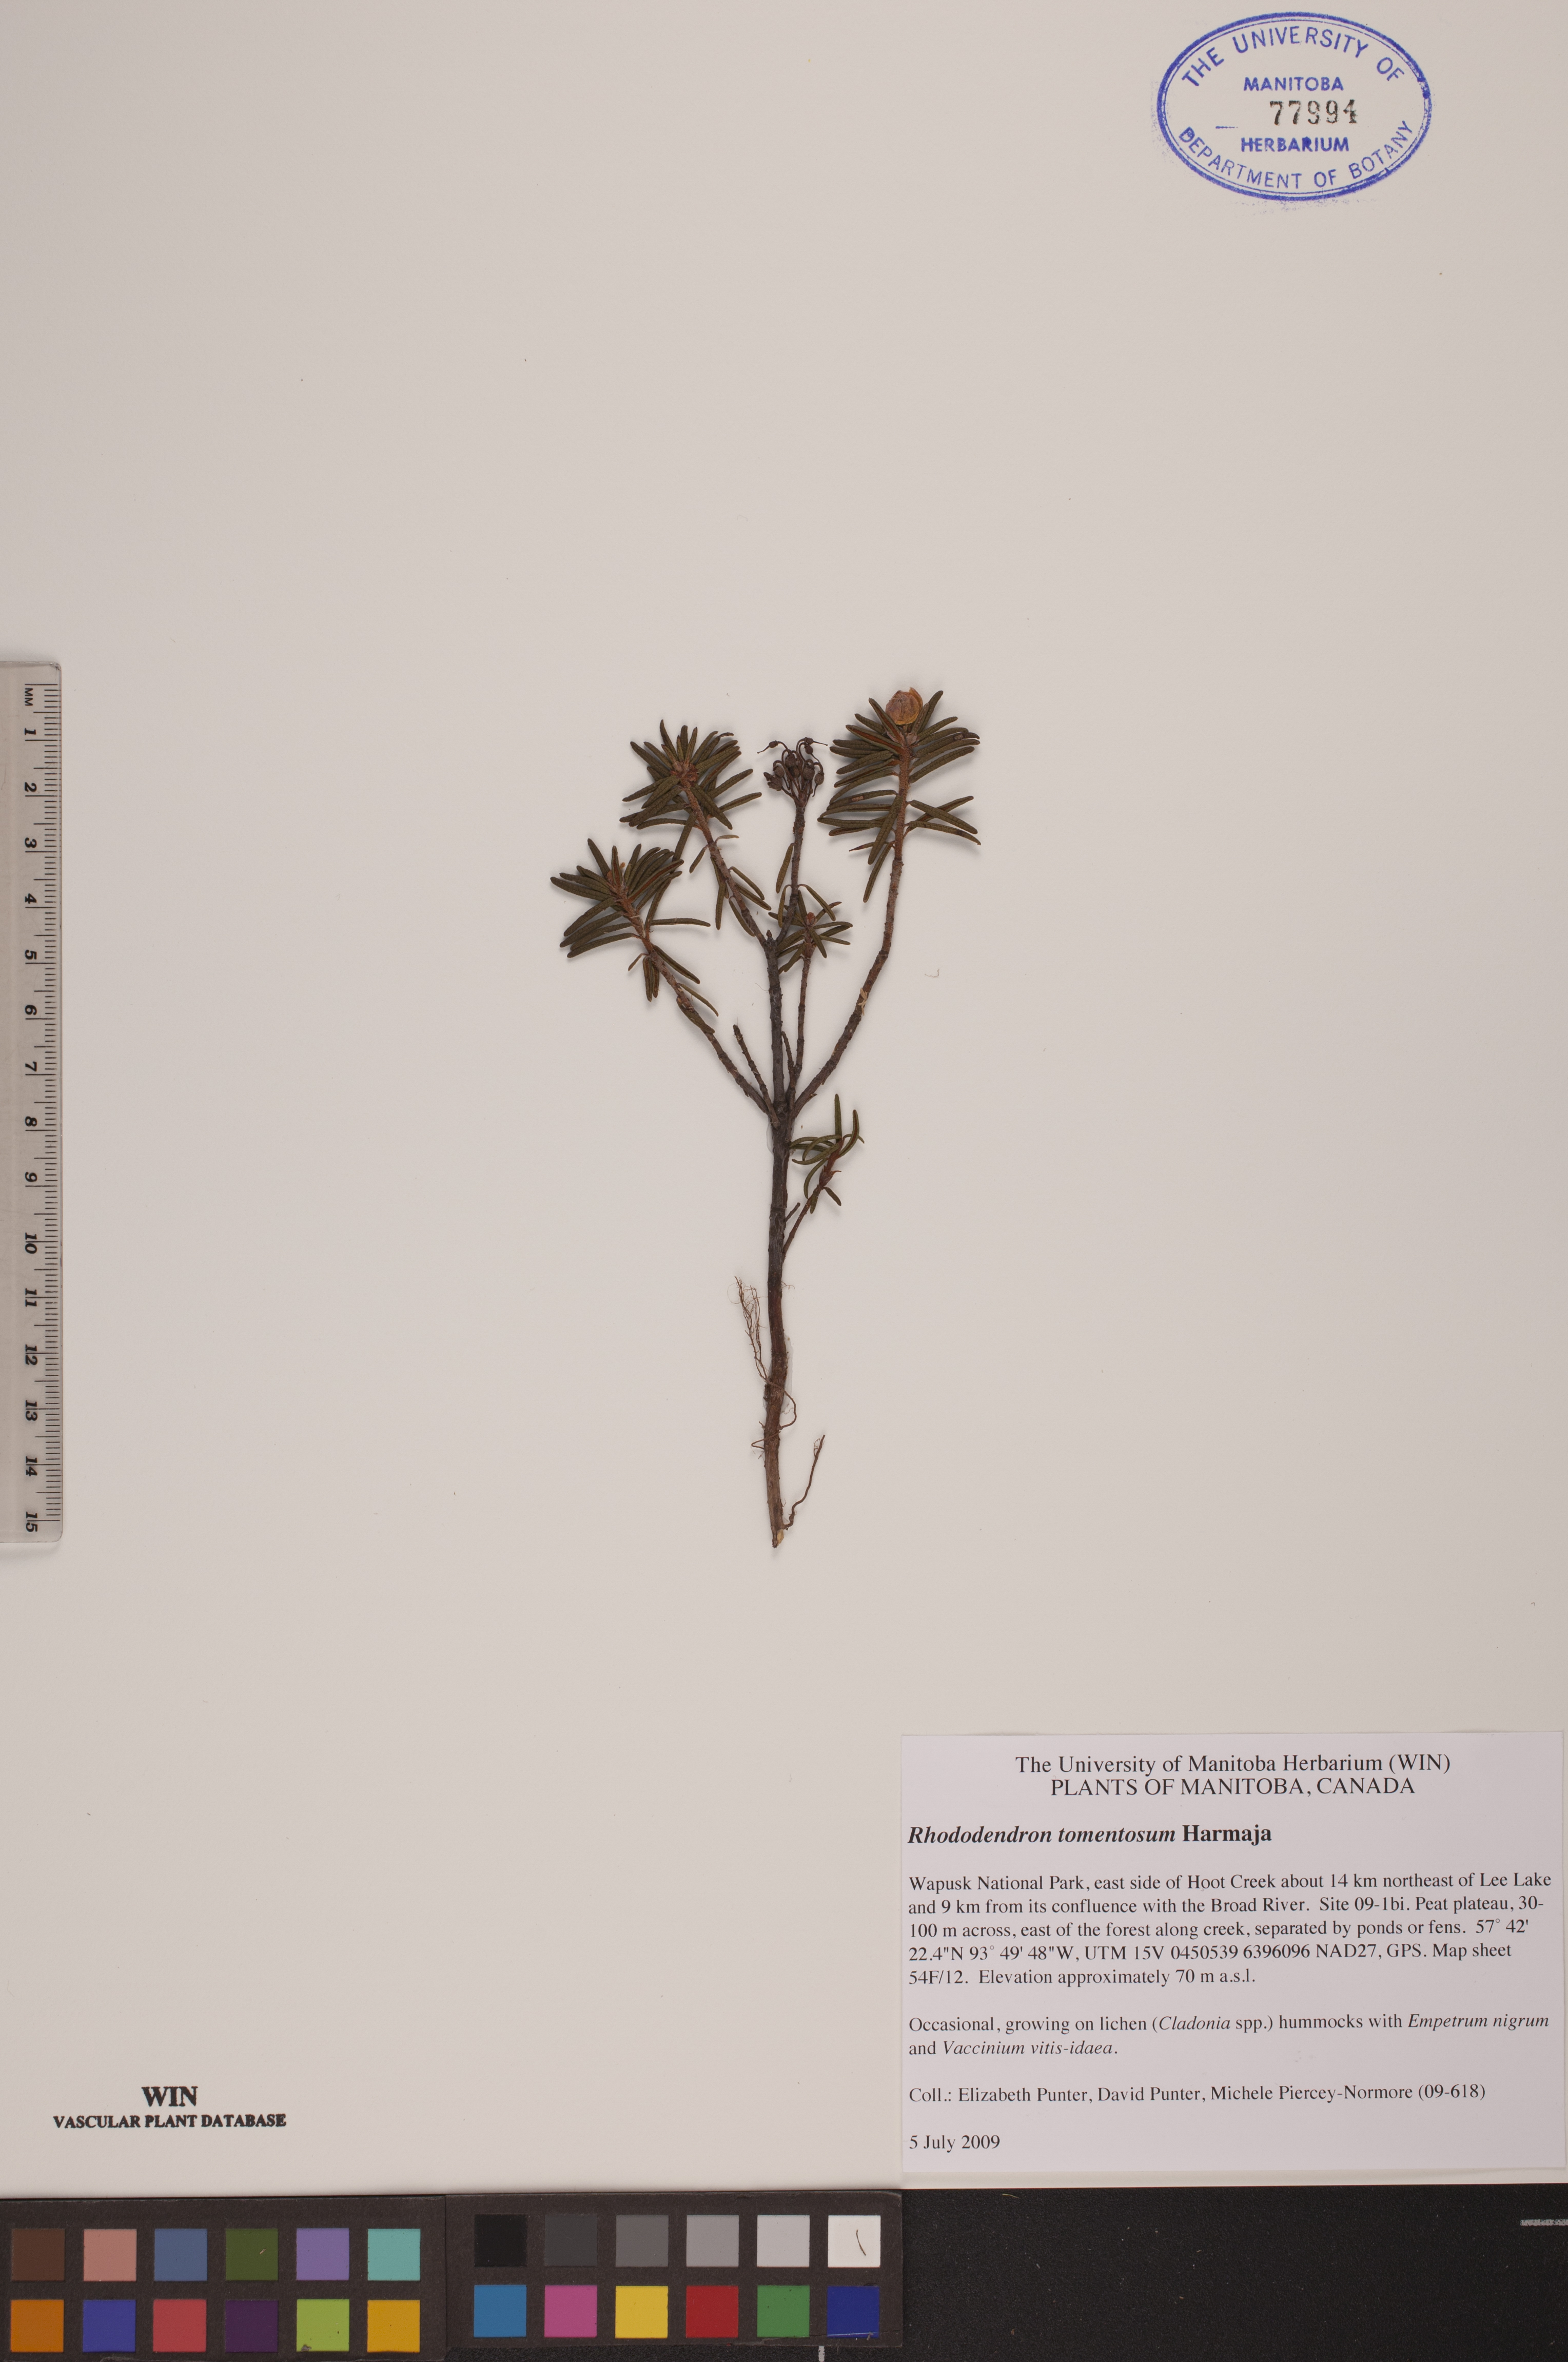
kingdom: Plantae
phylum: Tracheophyta
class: Magnoliopsida
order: Ericales
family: Ericaceae
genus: Rhododendron
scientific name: Rhododendron tomentosum
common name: Marsh labrador tea
